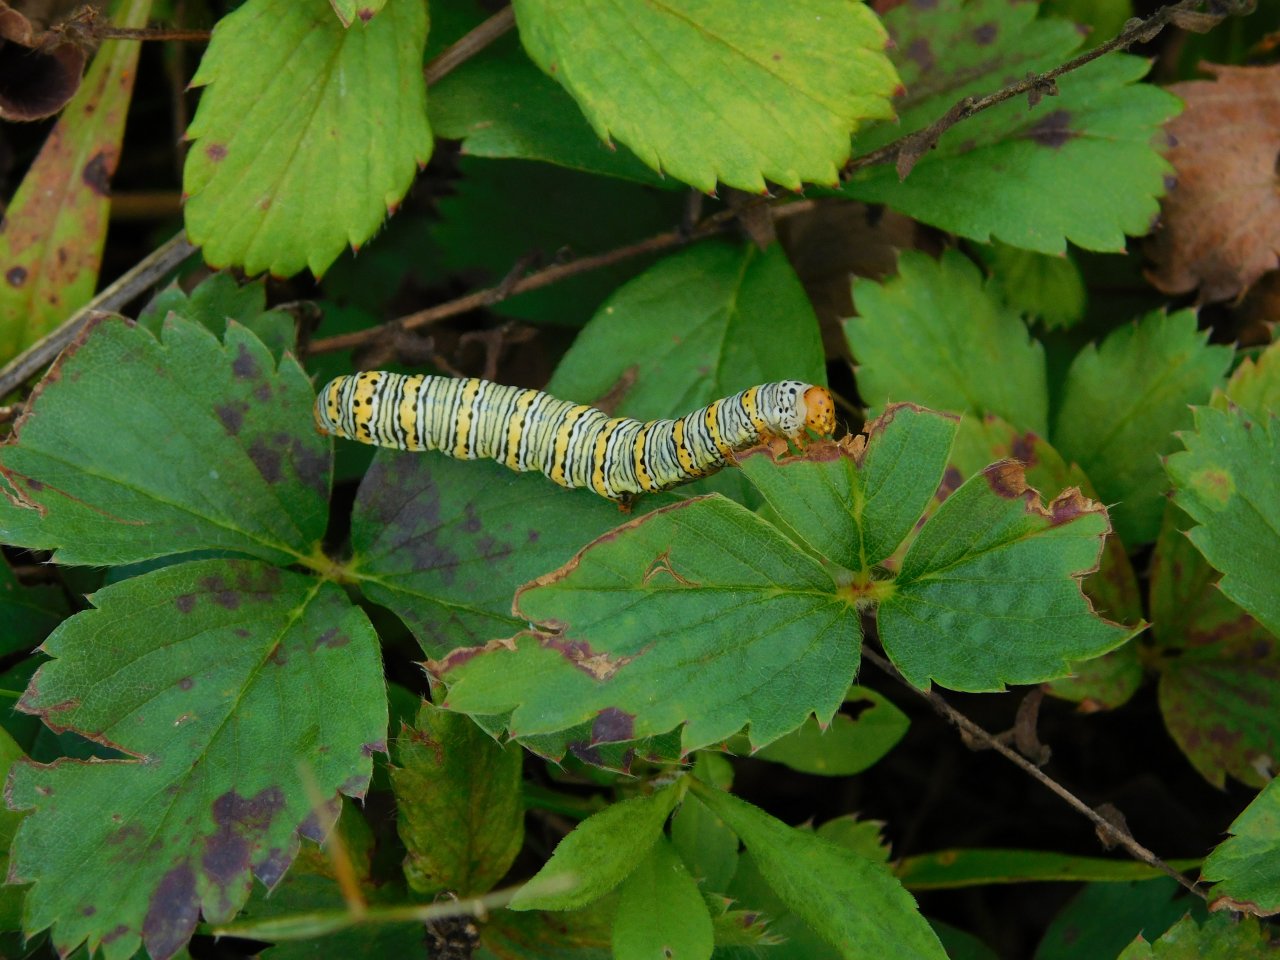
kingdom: Animalia
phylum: Arthropoda
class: Insecta
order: Lepidoptera
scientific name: Lepidoptera
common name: Butterflies
